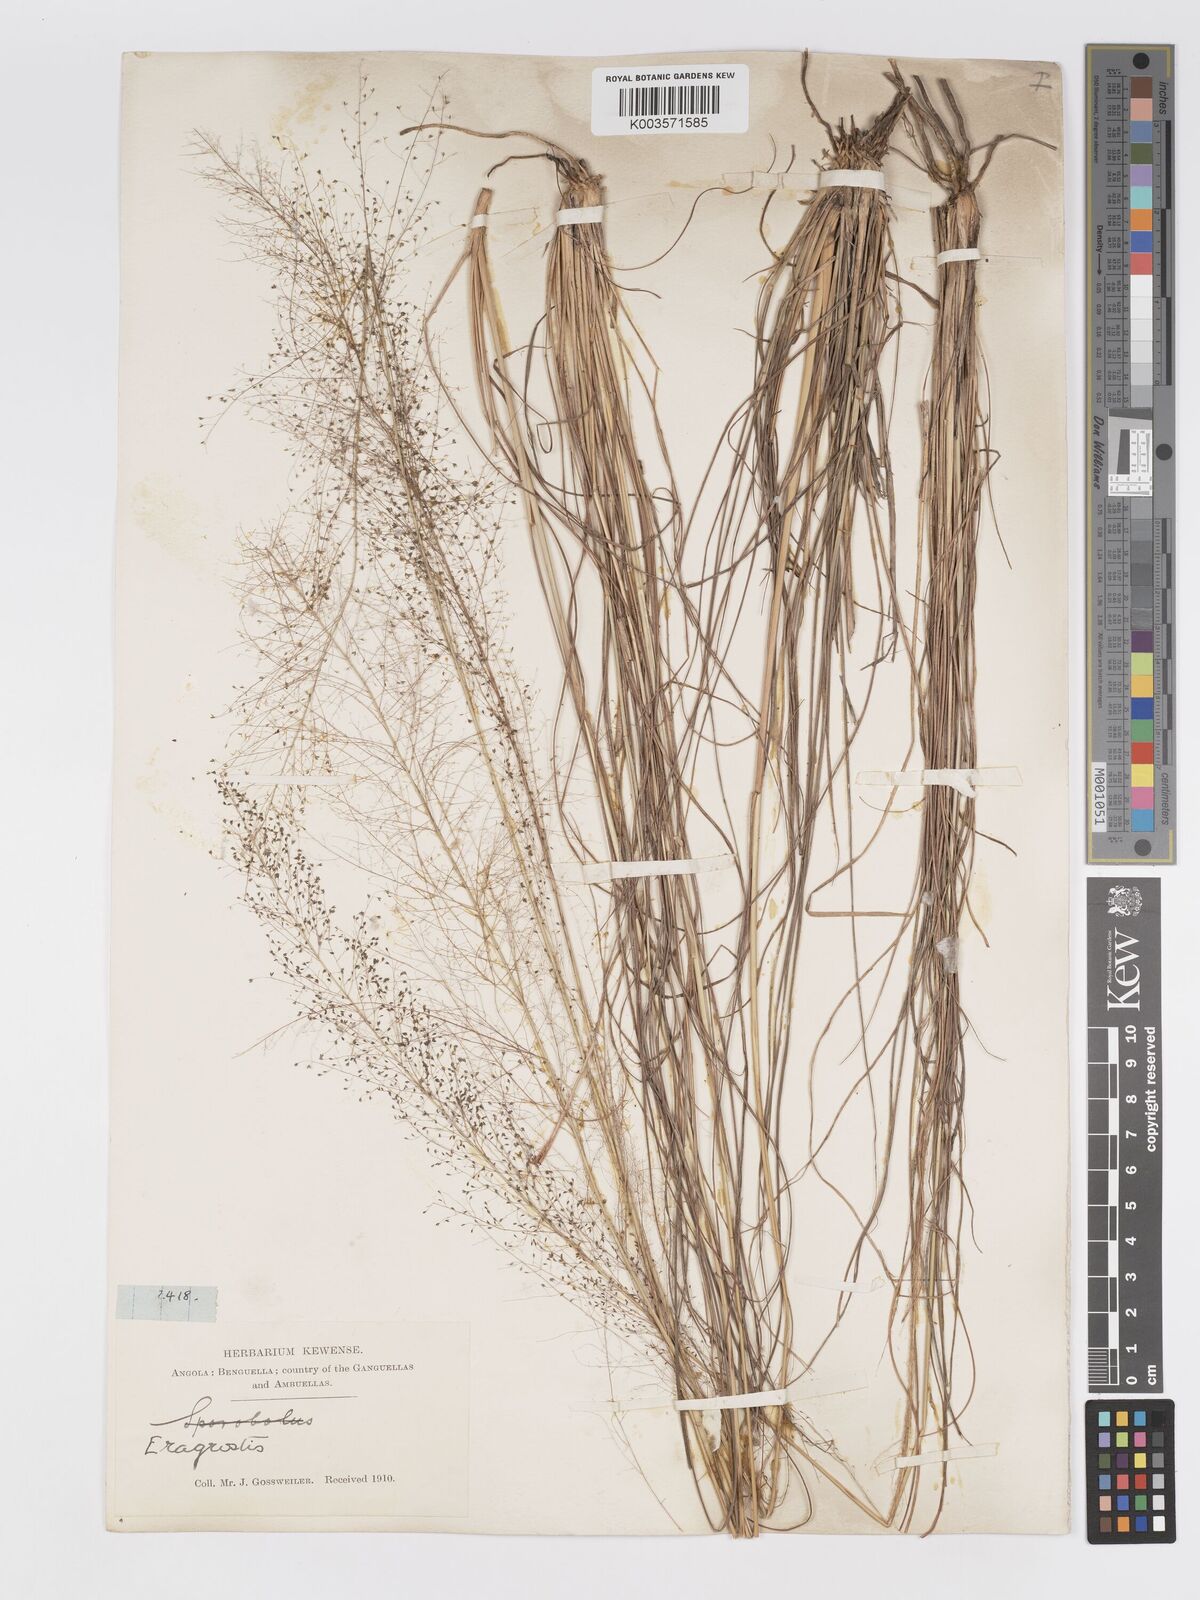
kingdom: Plantae
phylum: Tracheophyta
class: Liliopsida
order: Poales
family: Poaceae
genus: Eragrostis
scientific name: Eragrostis habrantha
